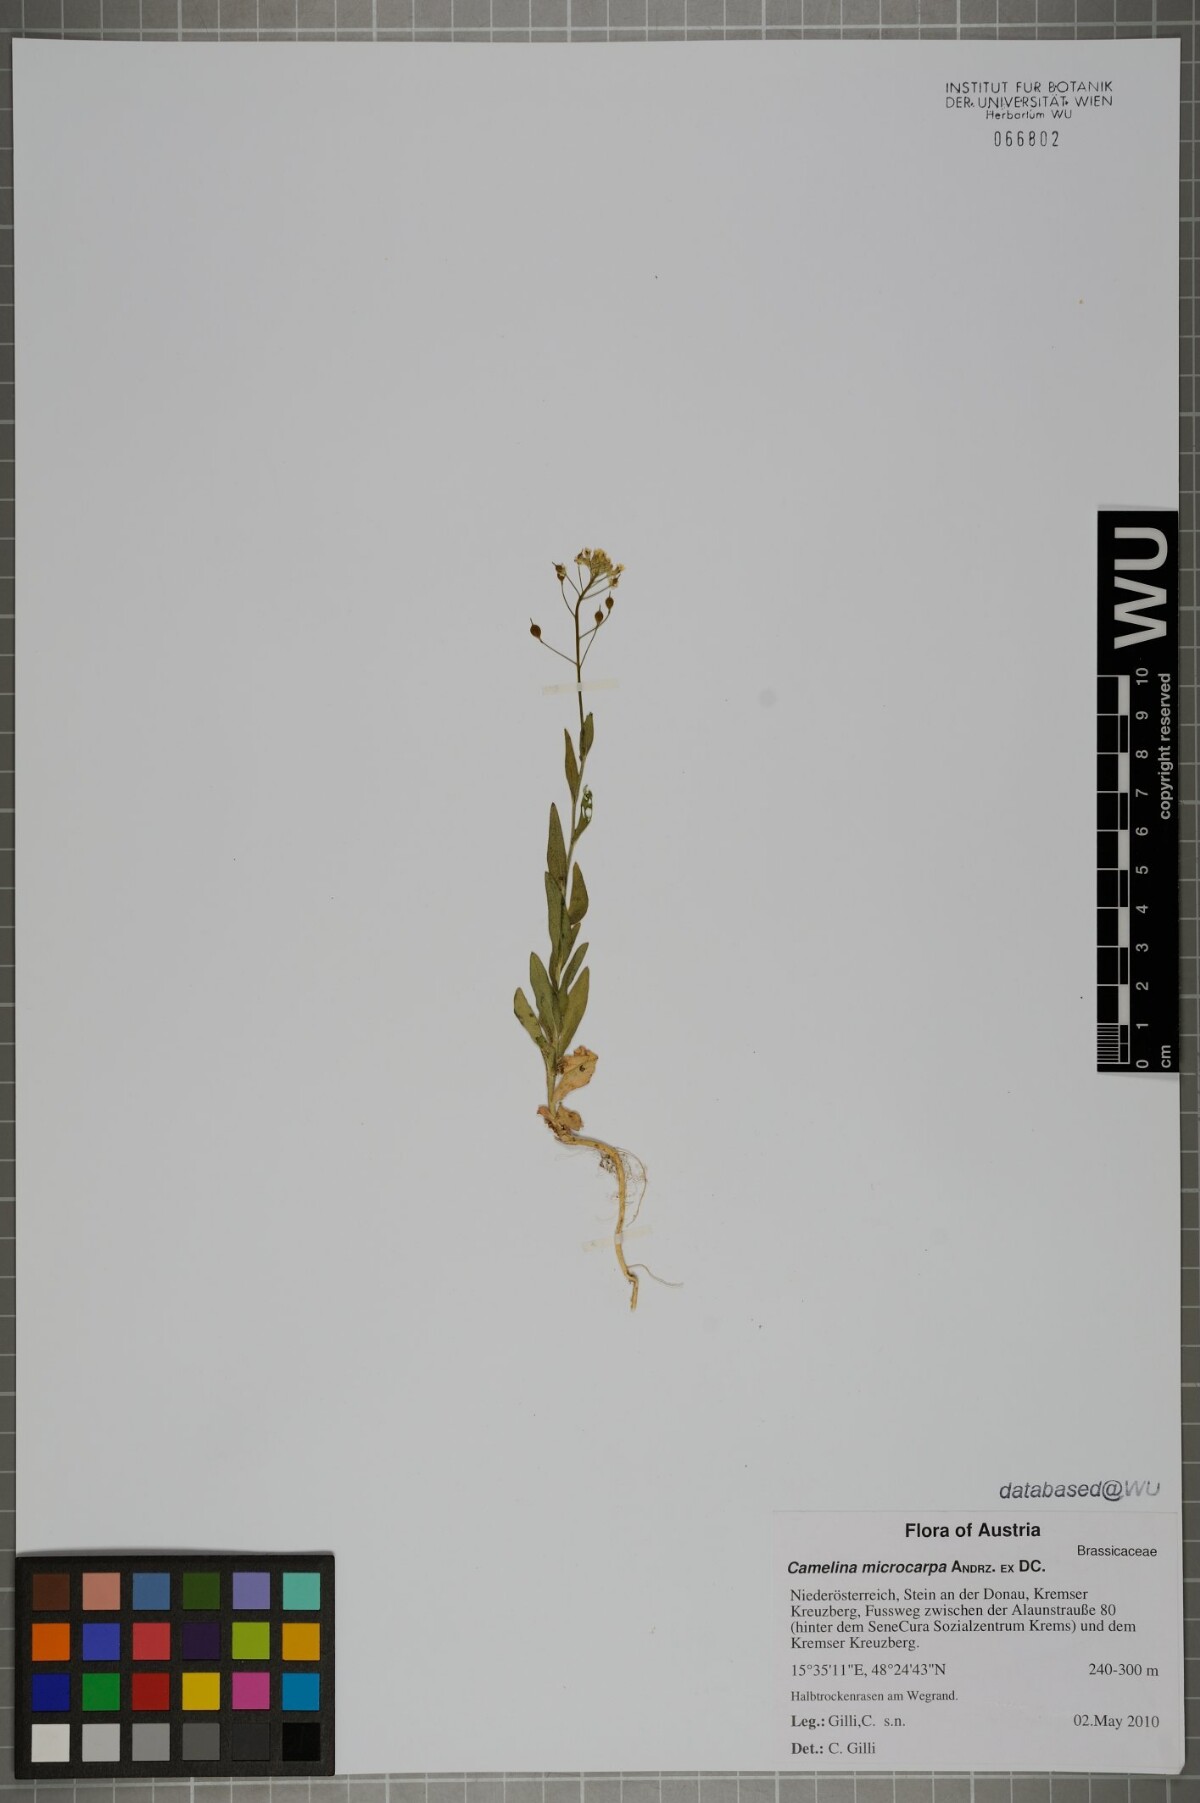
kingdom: Plantae
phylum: Tracheophyta
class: Magnoliopsida
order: Brassicales
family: Brassicaceae
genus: Camelina
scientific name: Camelina microcarpa
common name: Lesser gold-of-pleasure
